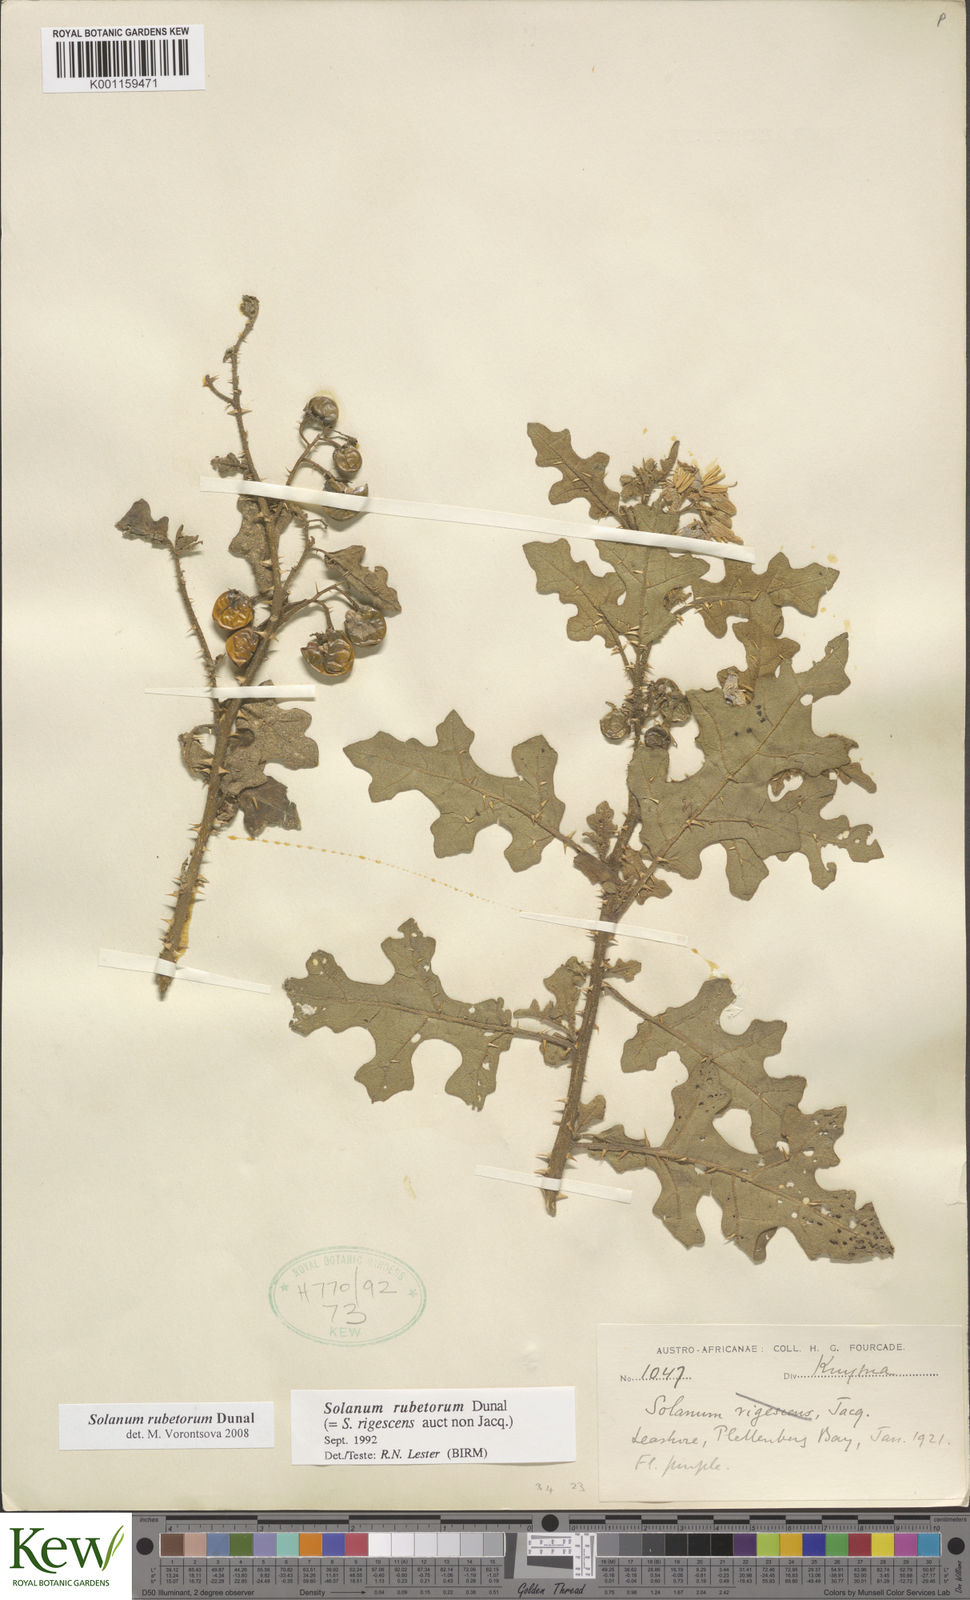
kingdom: Plantae
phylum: Tracheophyta
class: Magnoliopsida
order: Solanales
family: Solanaceae
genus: Solanum
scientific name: Solanum rubetorum
